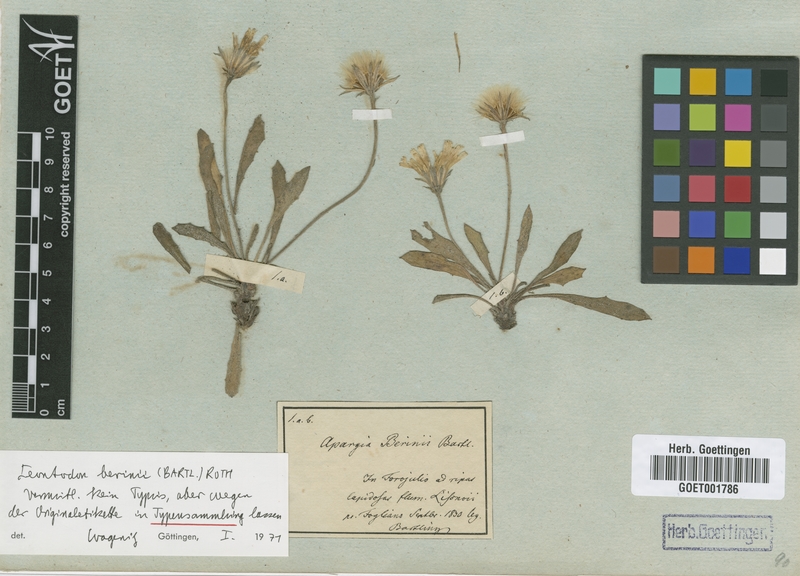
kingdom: Plantae
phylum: Tracheophyta
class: Magnoliopsida
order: Asterales
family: Asteraceae
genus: Leontodon
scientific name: Leontodon berinii
